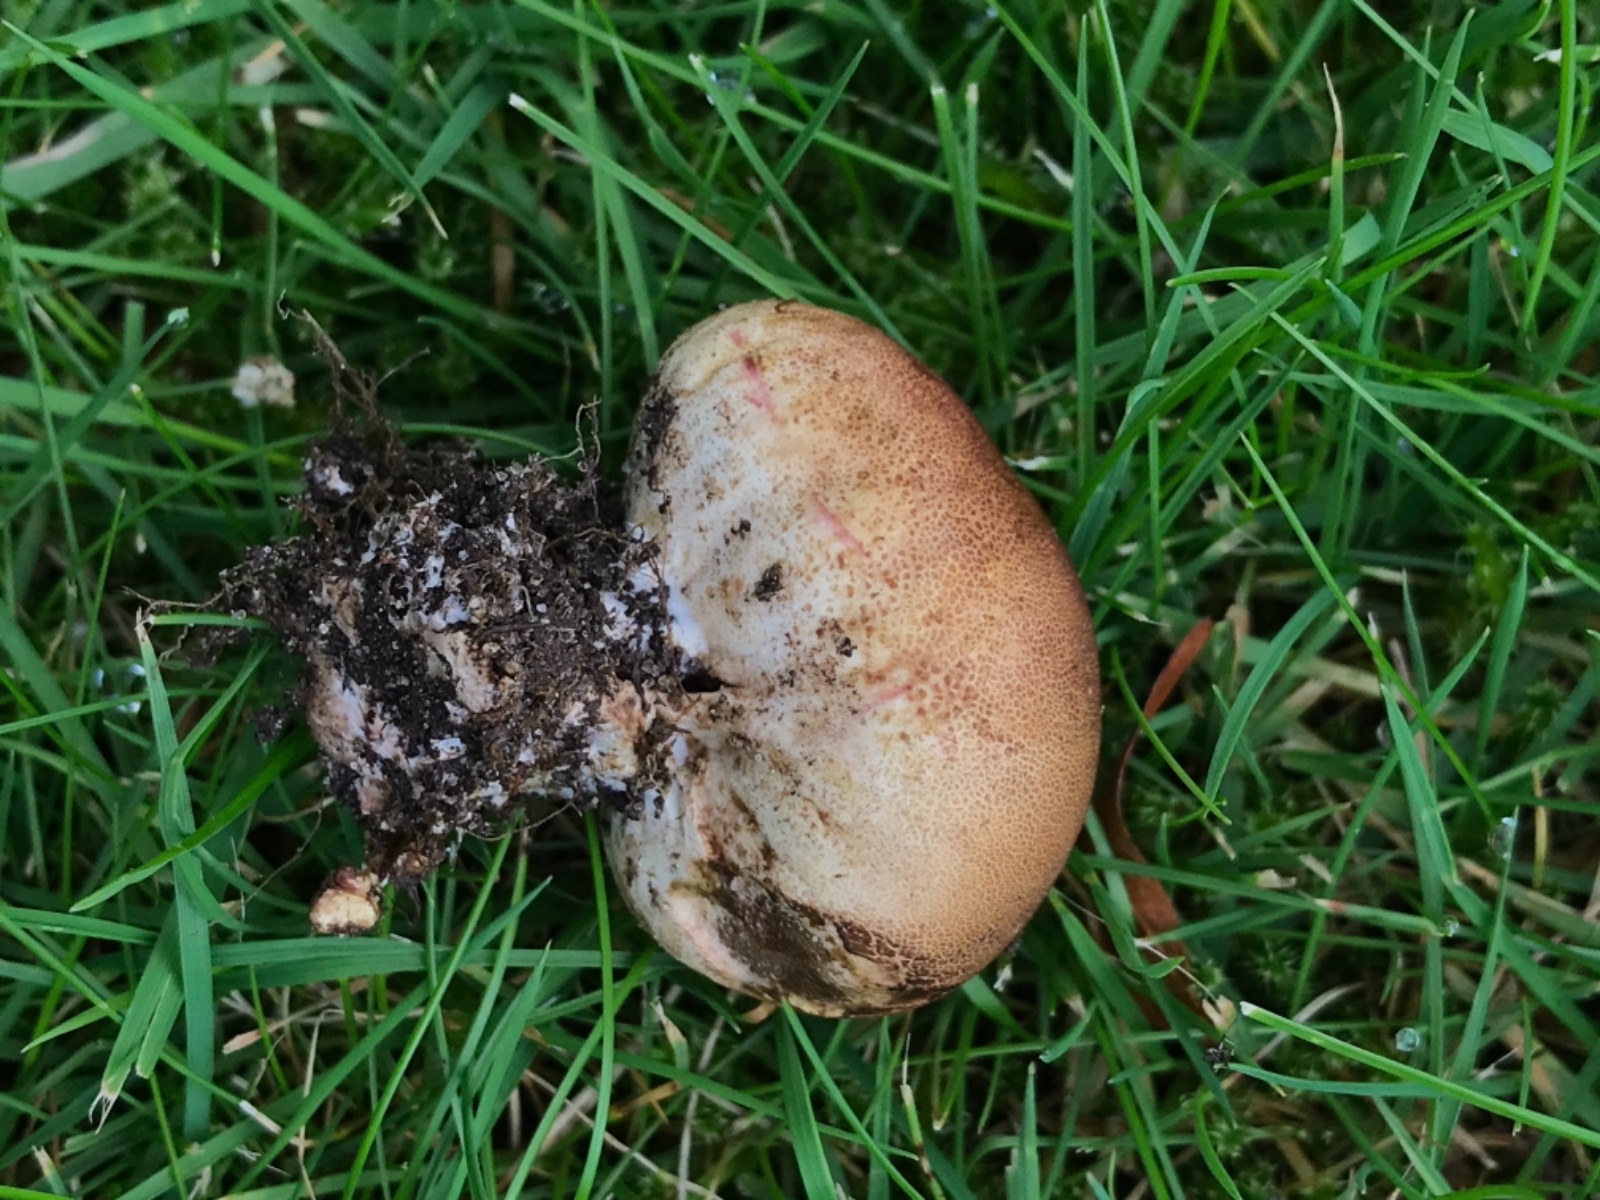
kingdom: Fungi
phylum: Basidiomycota
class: Agaricomycetes
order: Boletales
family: Sclerodermataceae
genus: Scleroderma
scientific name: Scleroderma
